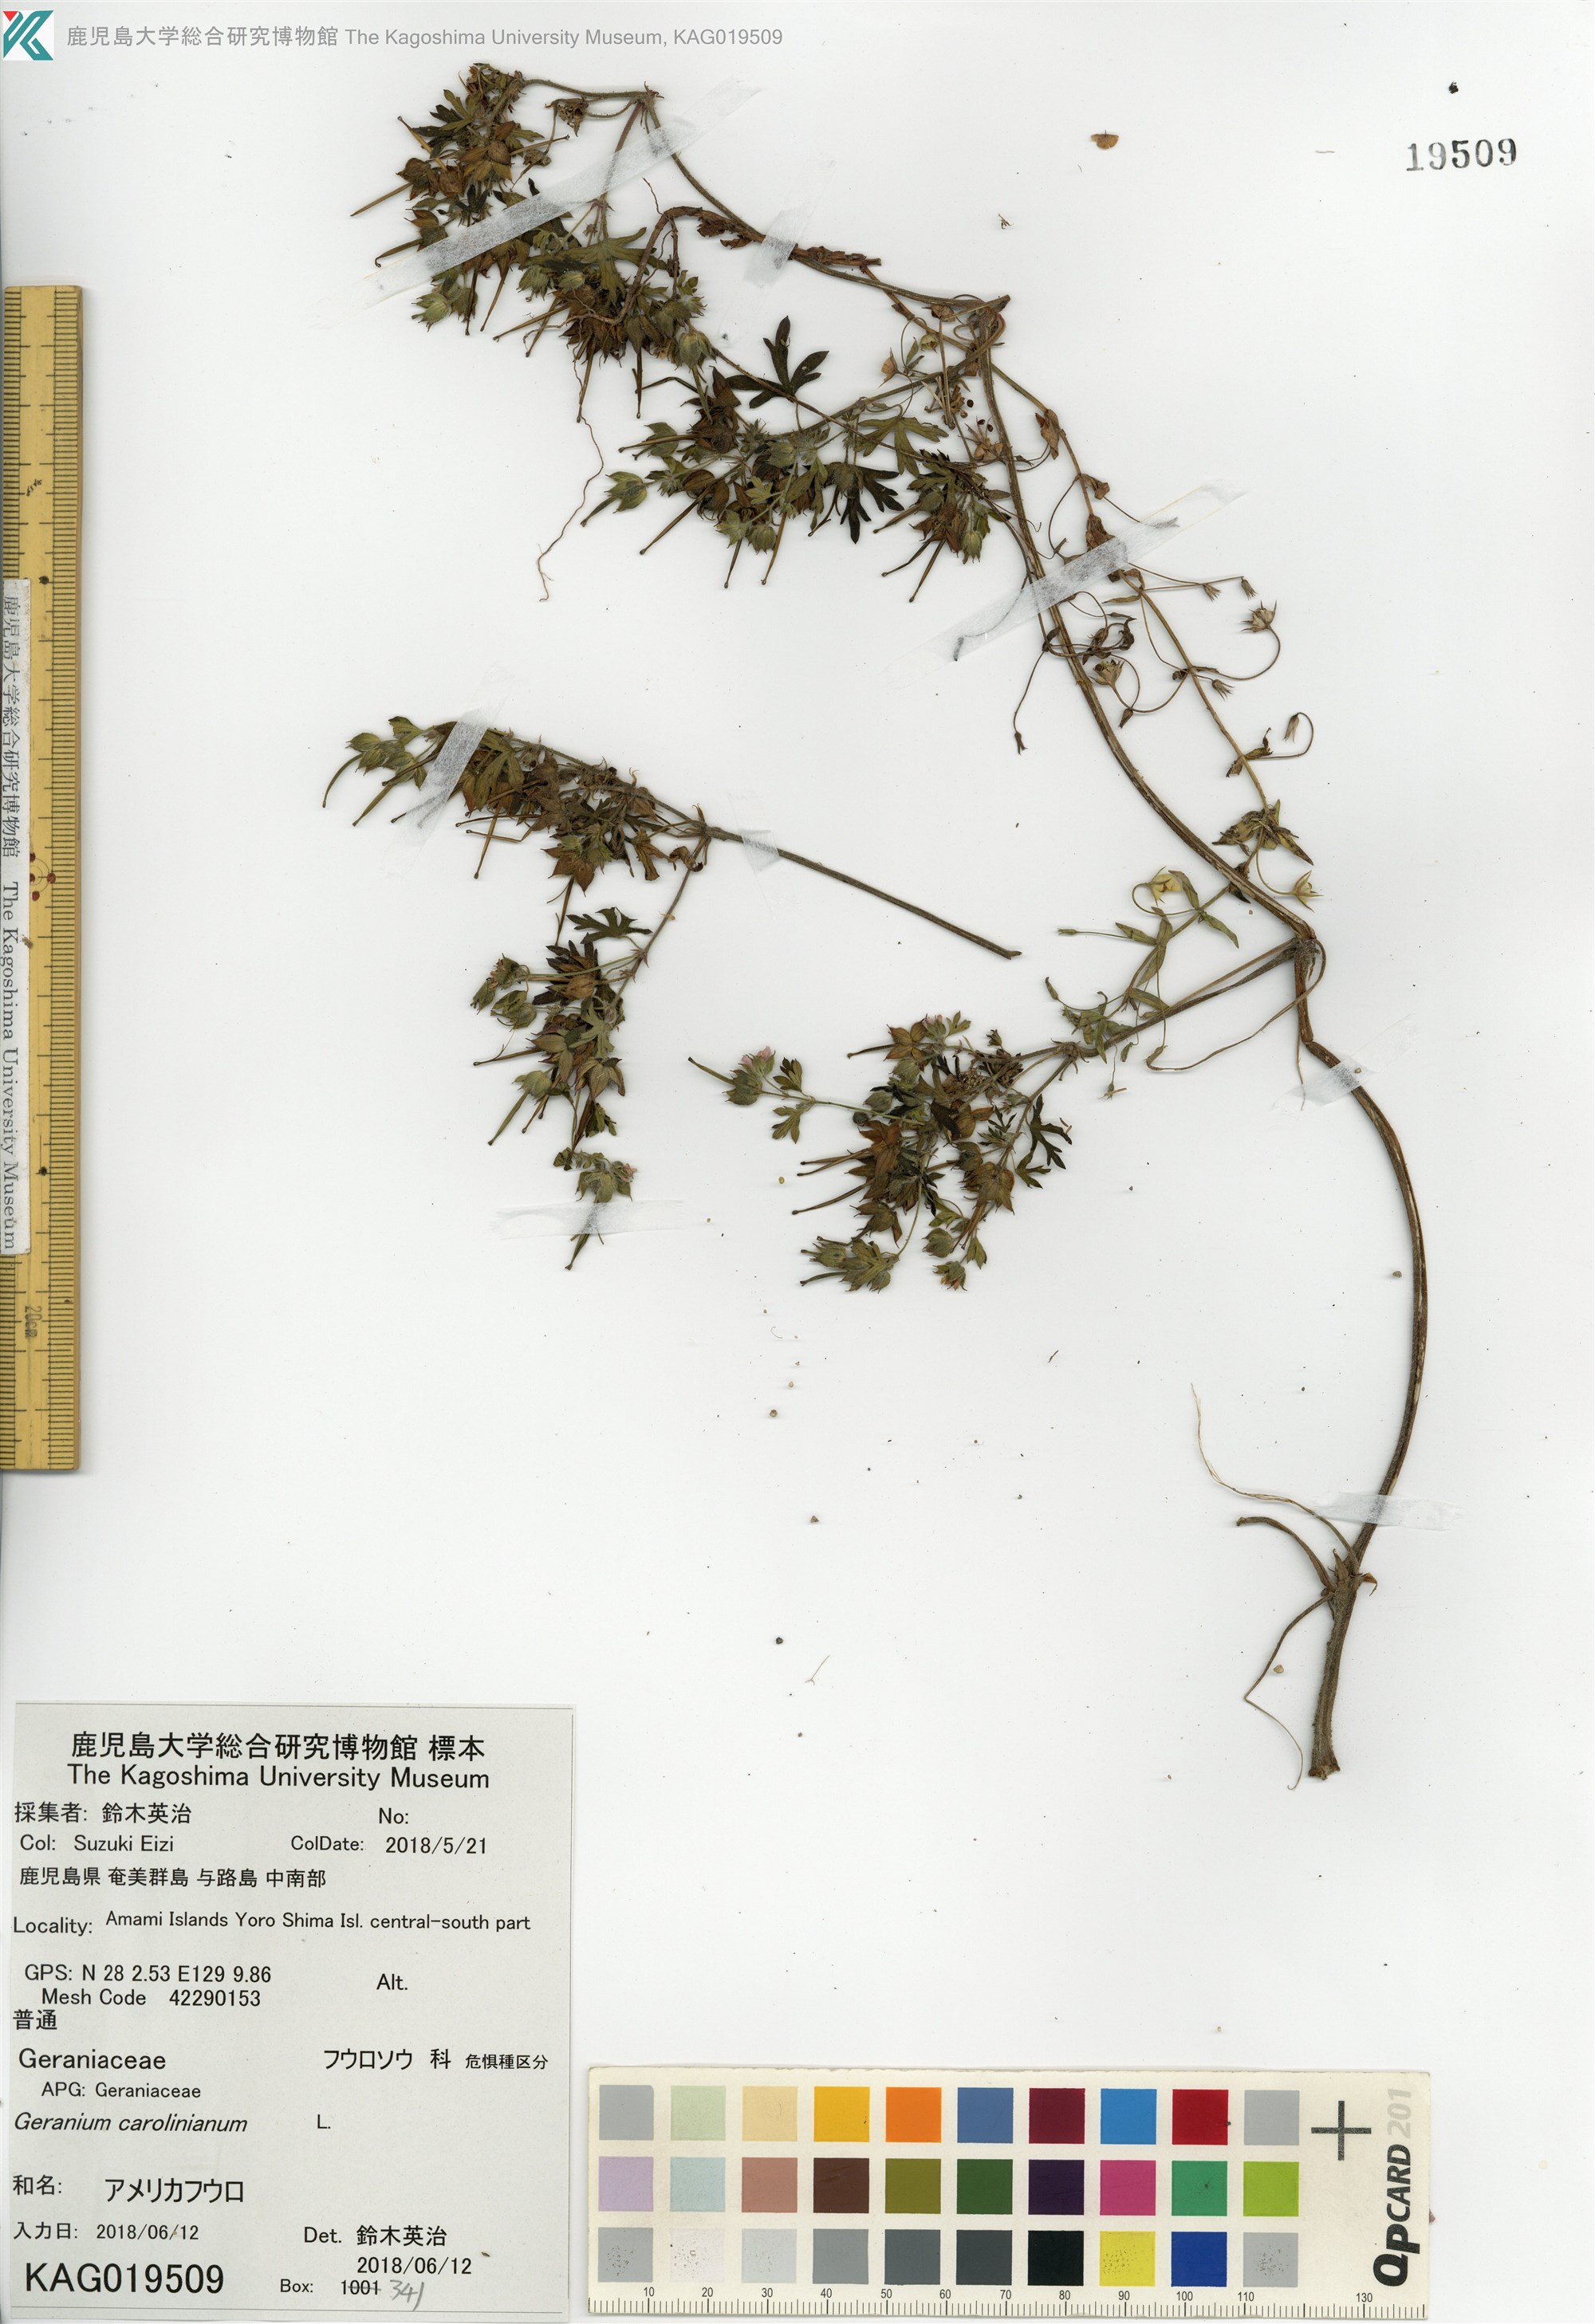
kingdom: Plantae
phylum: Tracheophyta
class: Magnoliopsida
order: Geraniales
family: Geraniaceae
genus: Geranium
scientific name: Geranium carolinianum
